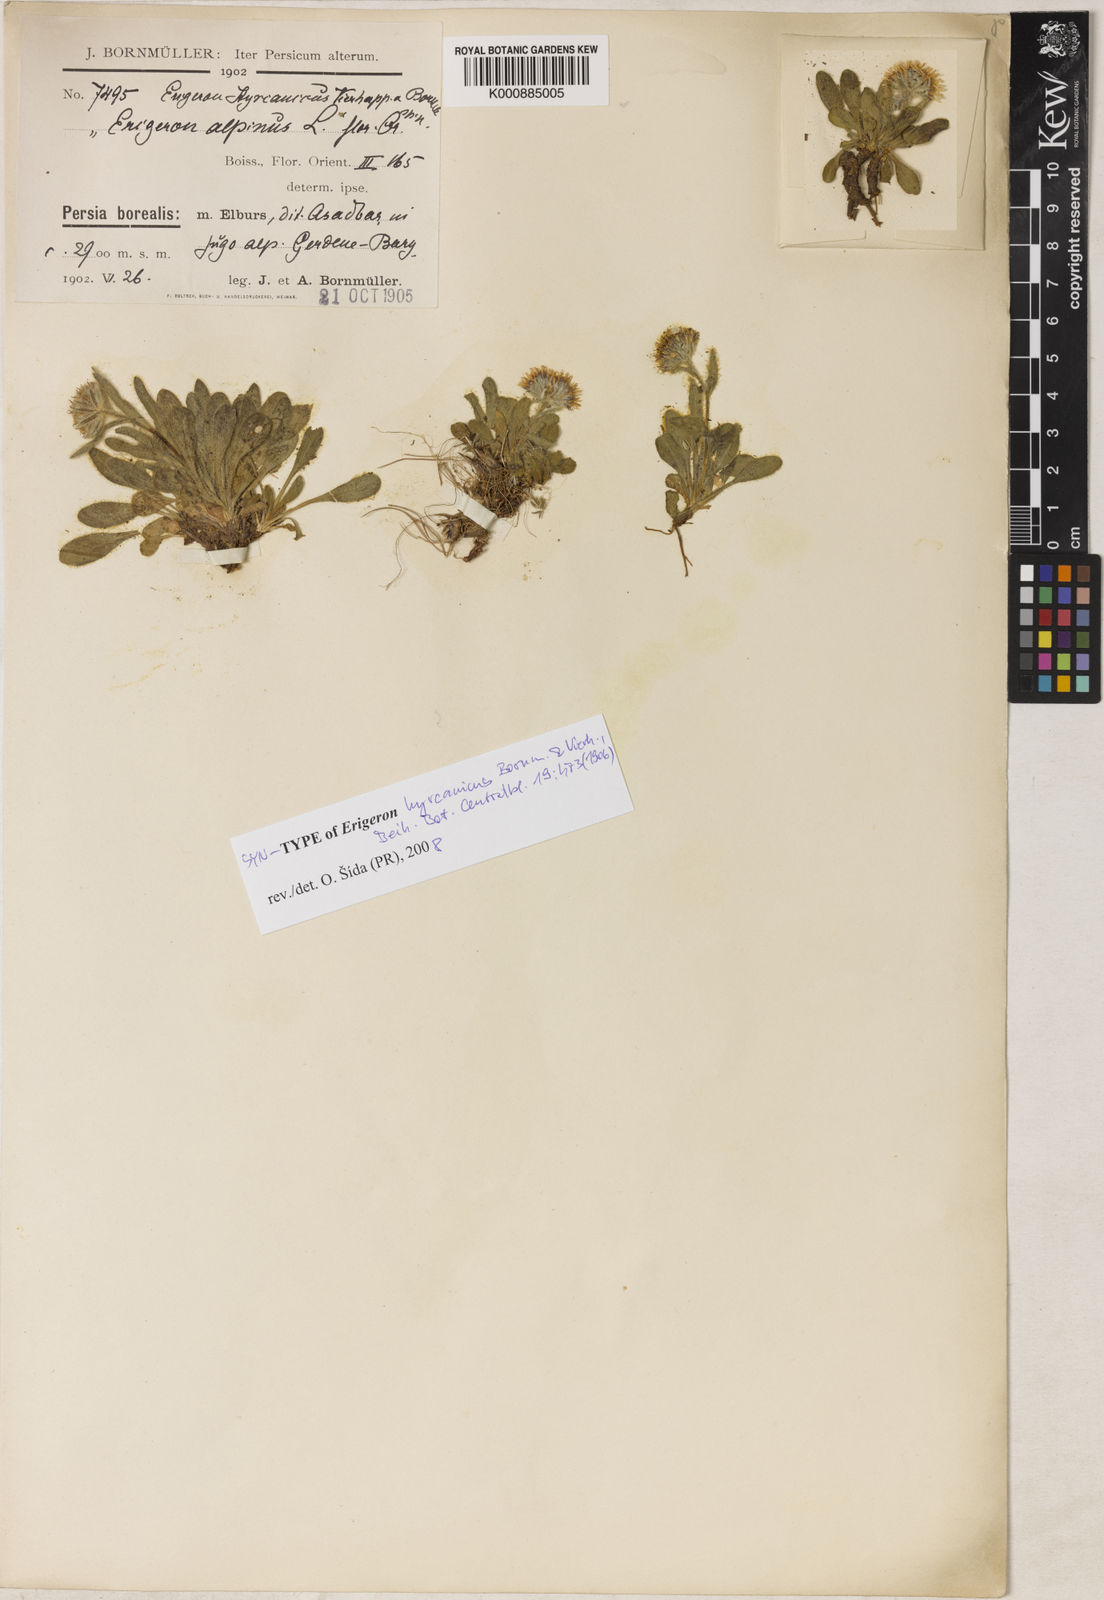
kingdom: Plantae
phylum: Tracheophyta
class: Magnoliopsida
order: Asterales
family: Asteraceae
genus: Erigeron
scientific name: Erigeron alpinus
